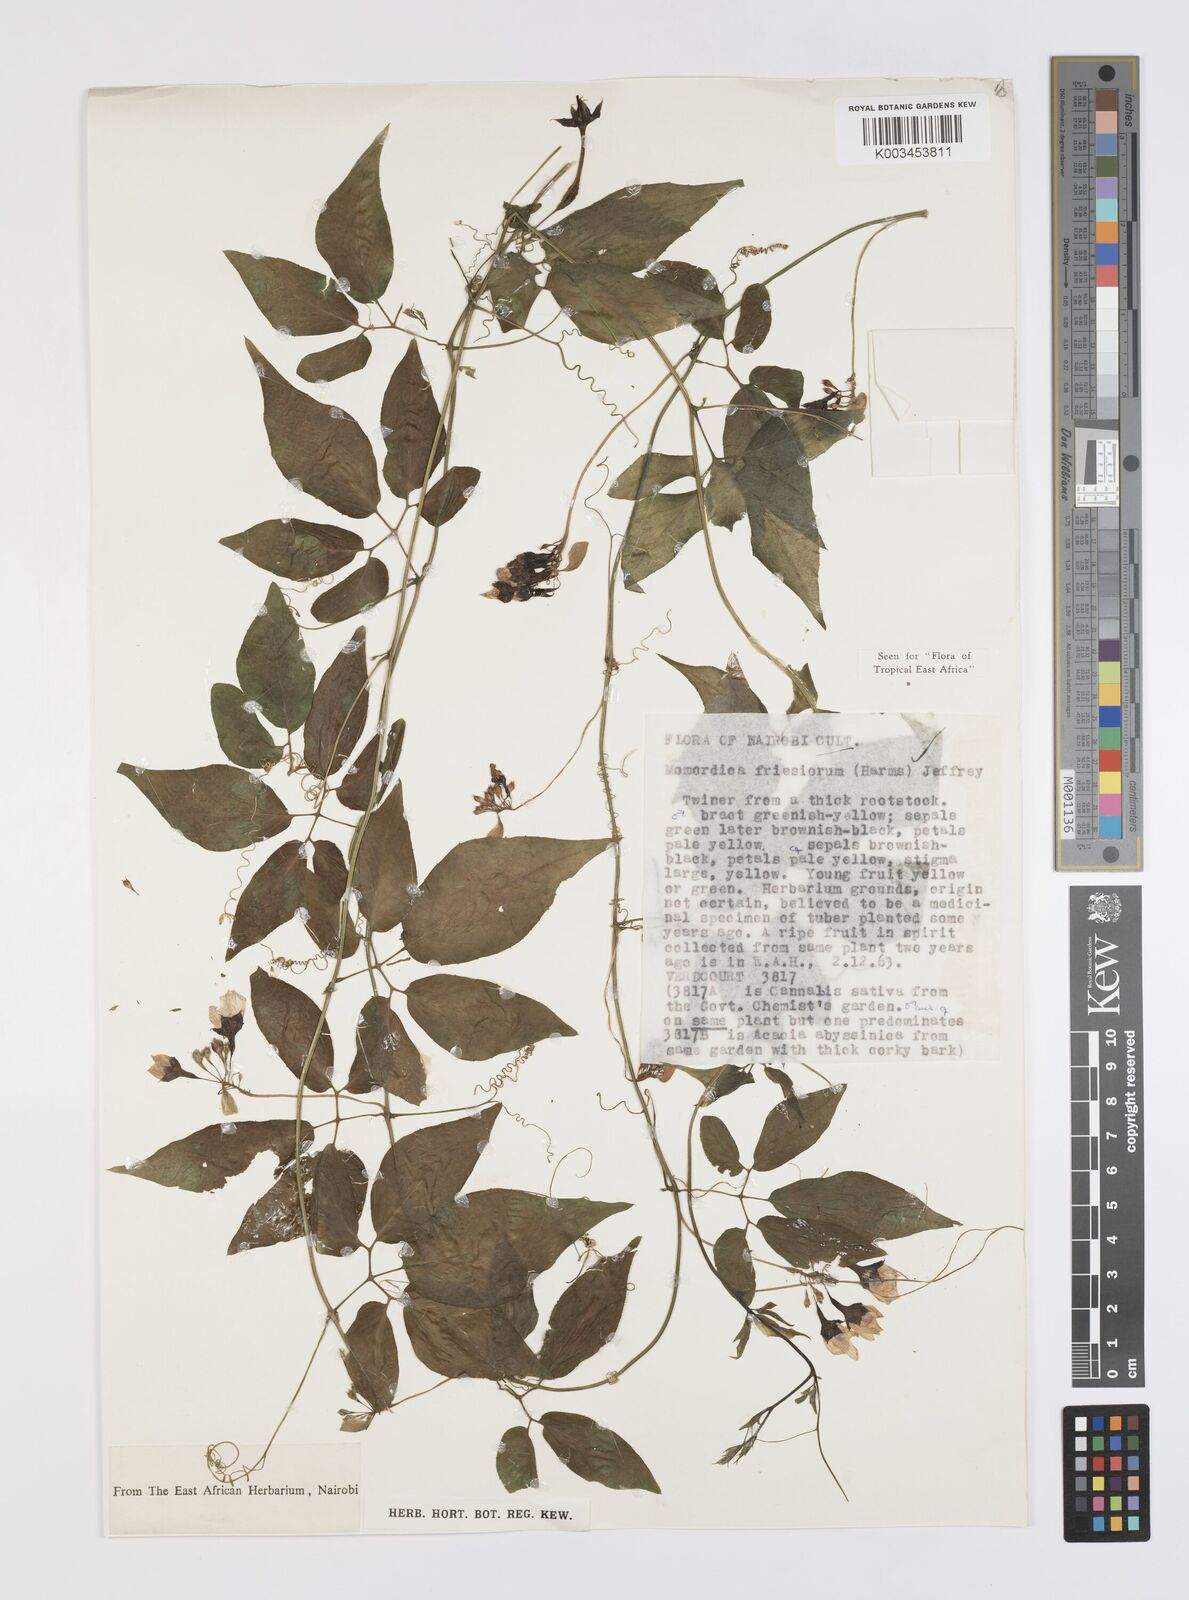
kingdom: Plantae
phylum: Tracheophyta
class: Magnoliopsida
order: Cucurbitales
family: Cucurbitaceae
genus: Momordica
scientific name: Momordica friesiorum
